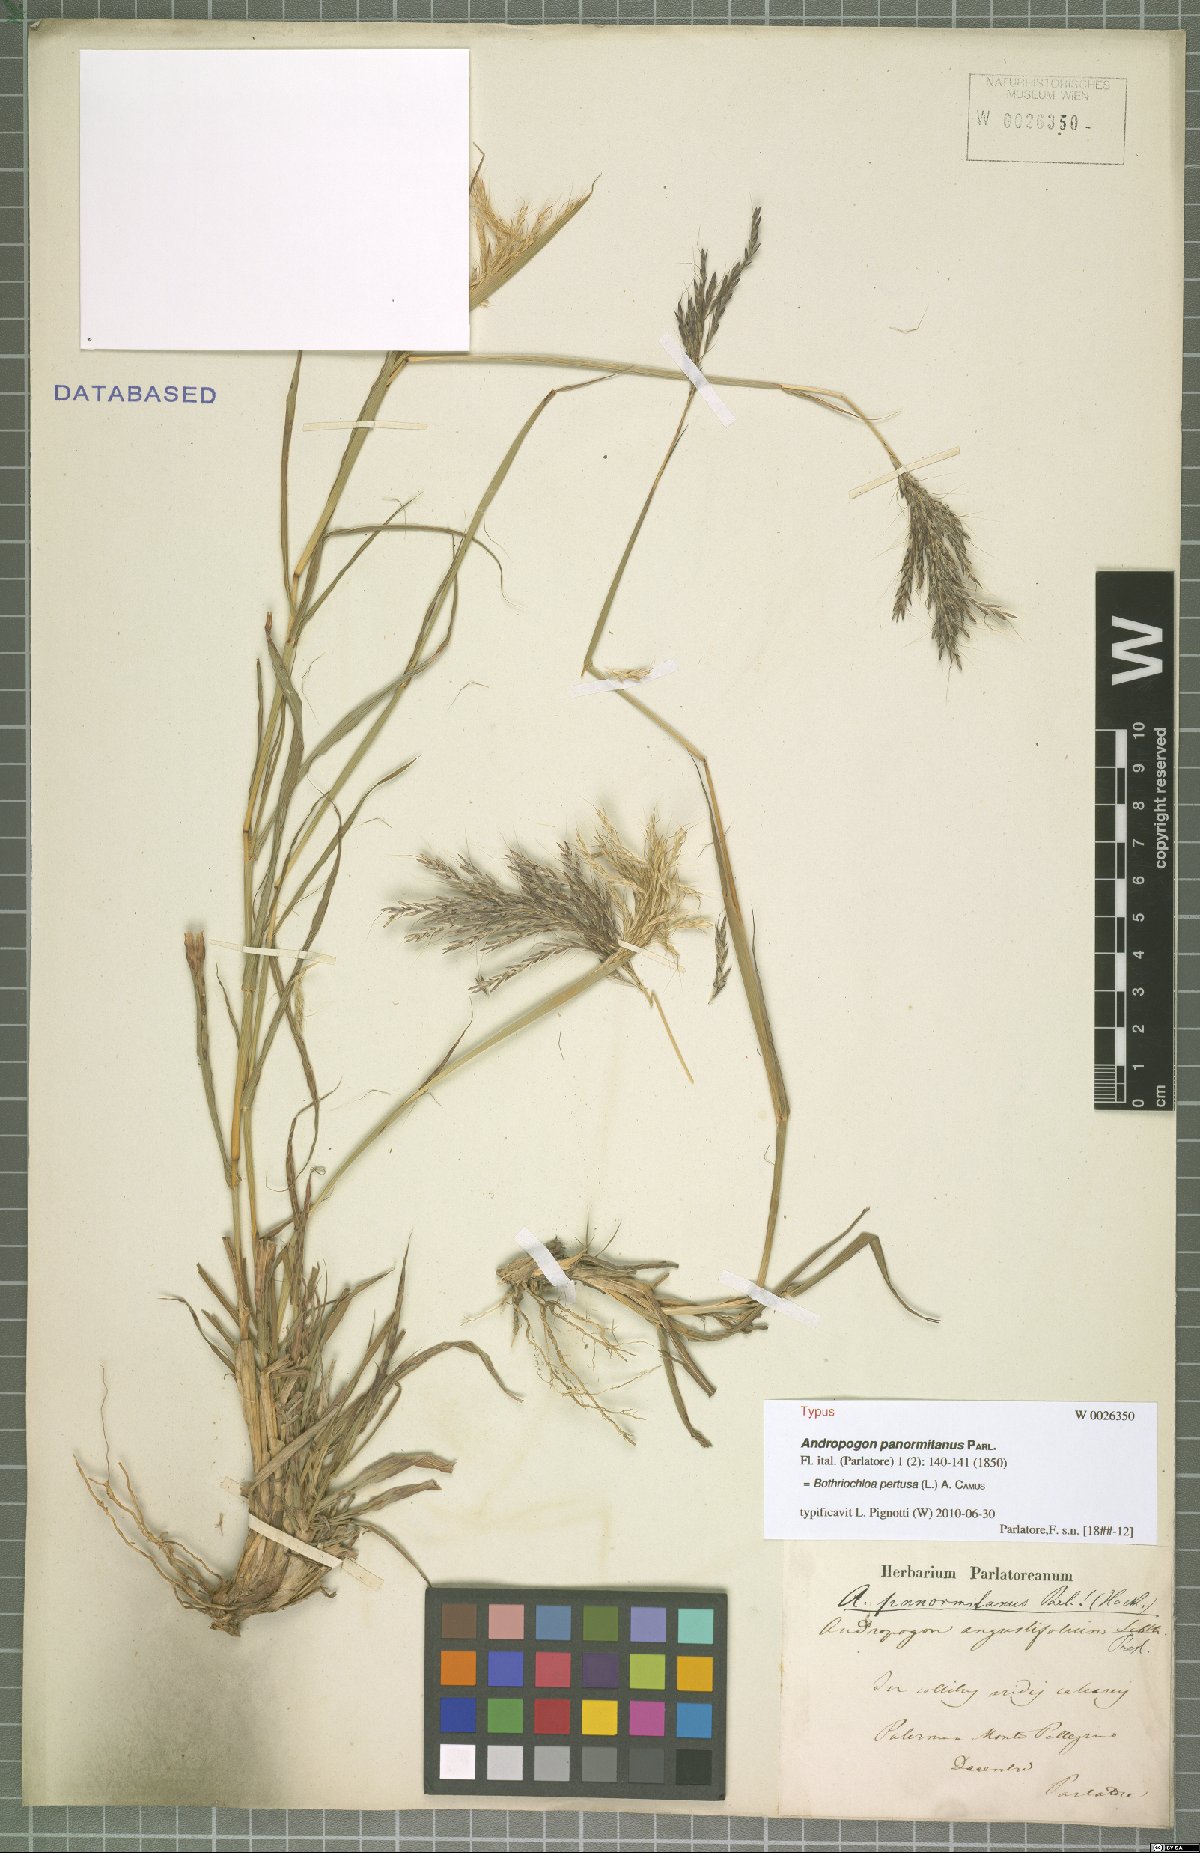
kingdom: Plantae
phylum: Tracheophyta
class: Liliopsida
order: Poales
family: Poaceae
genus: Bothriochloa
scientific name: Bothriochloa pertusa
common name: Pitted beardgrass
